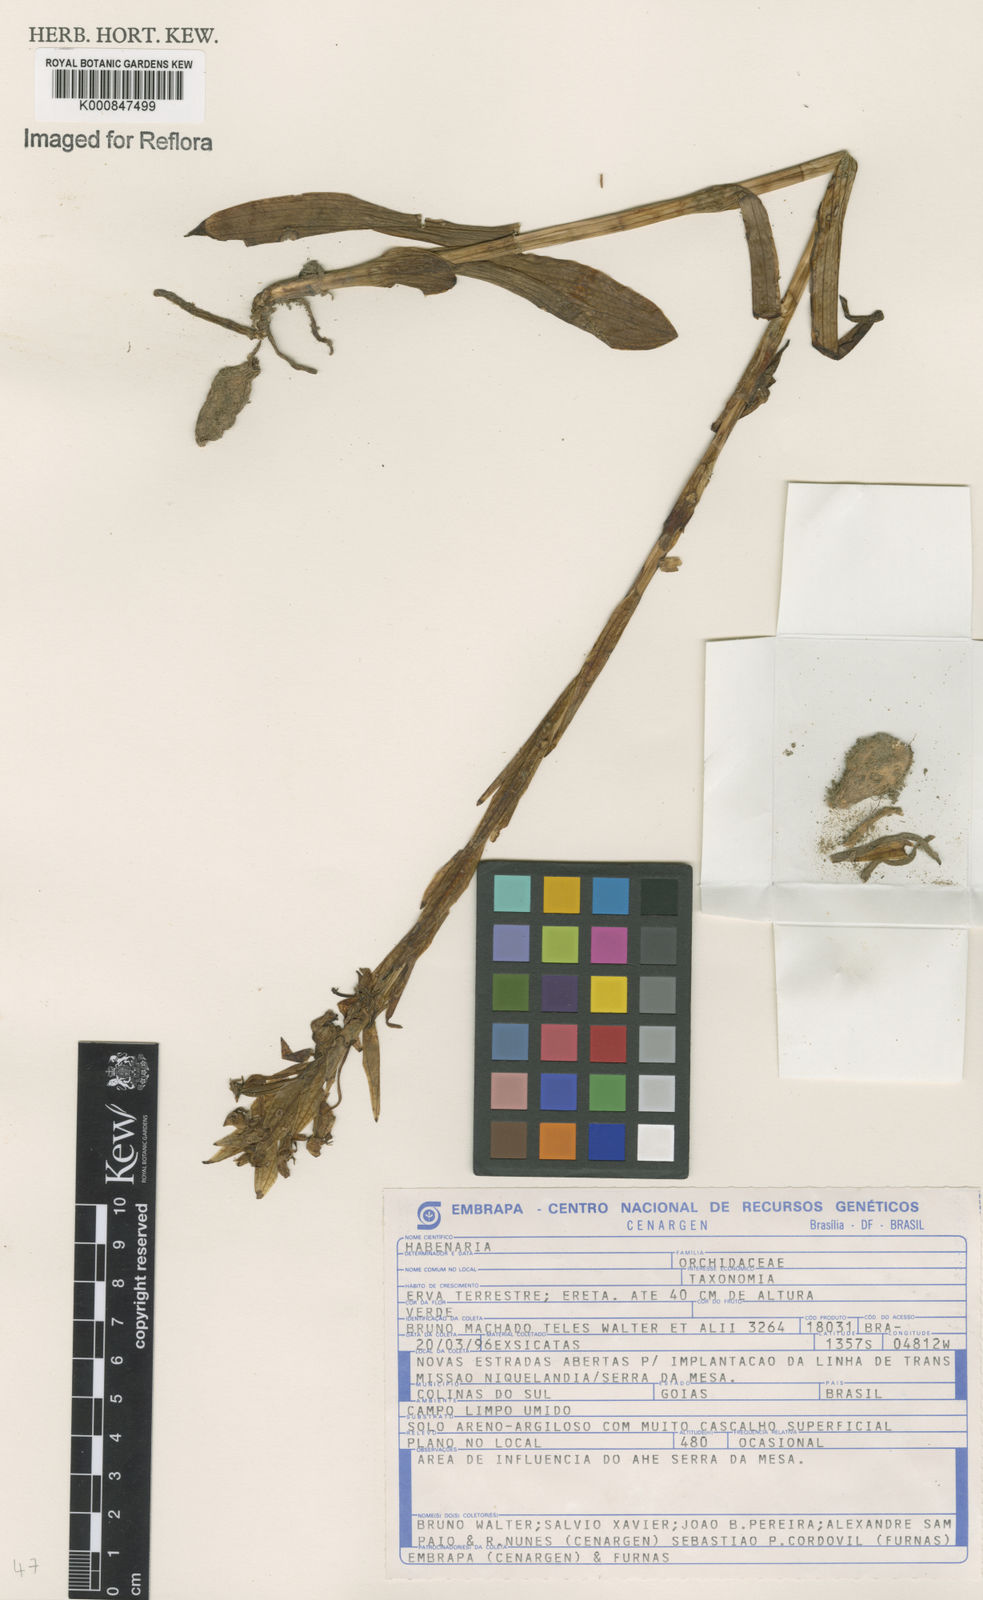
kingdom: Plantae
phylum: Tracheophyta
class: Liliopsida
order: Asparagales
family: Orchidaceae
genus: Habenaria
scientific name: Habenaria
